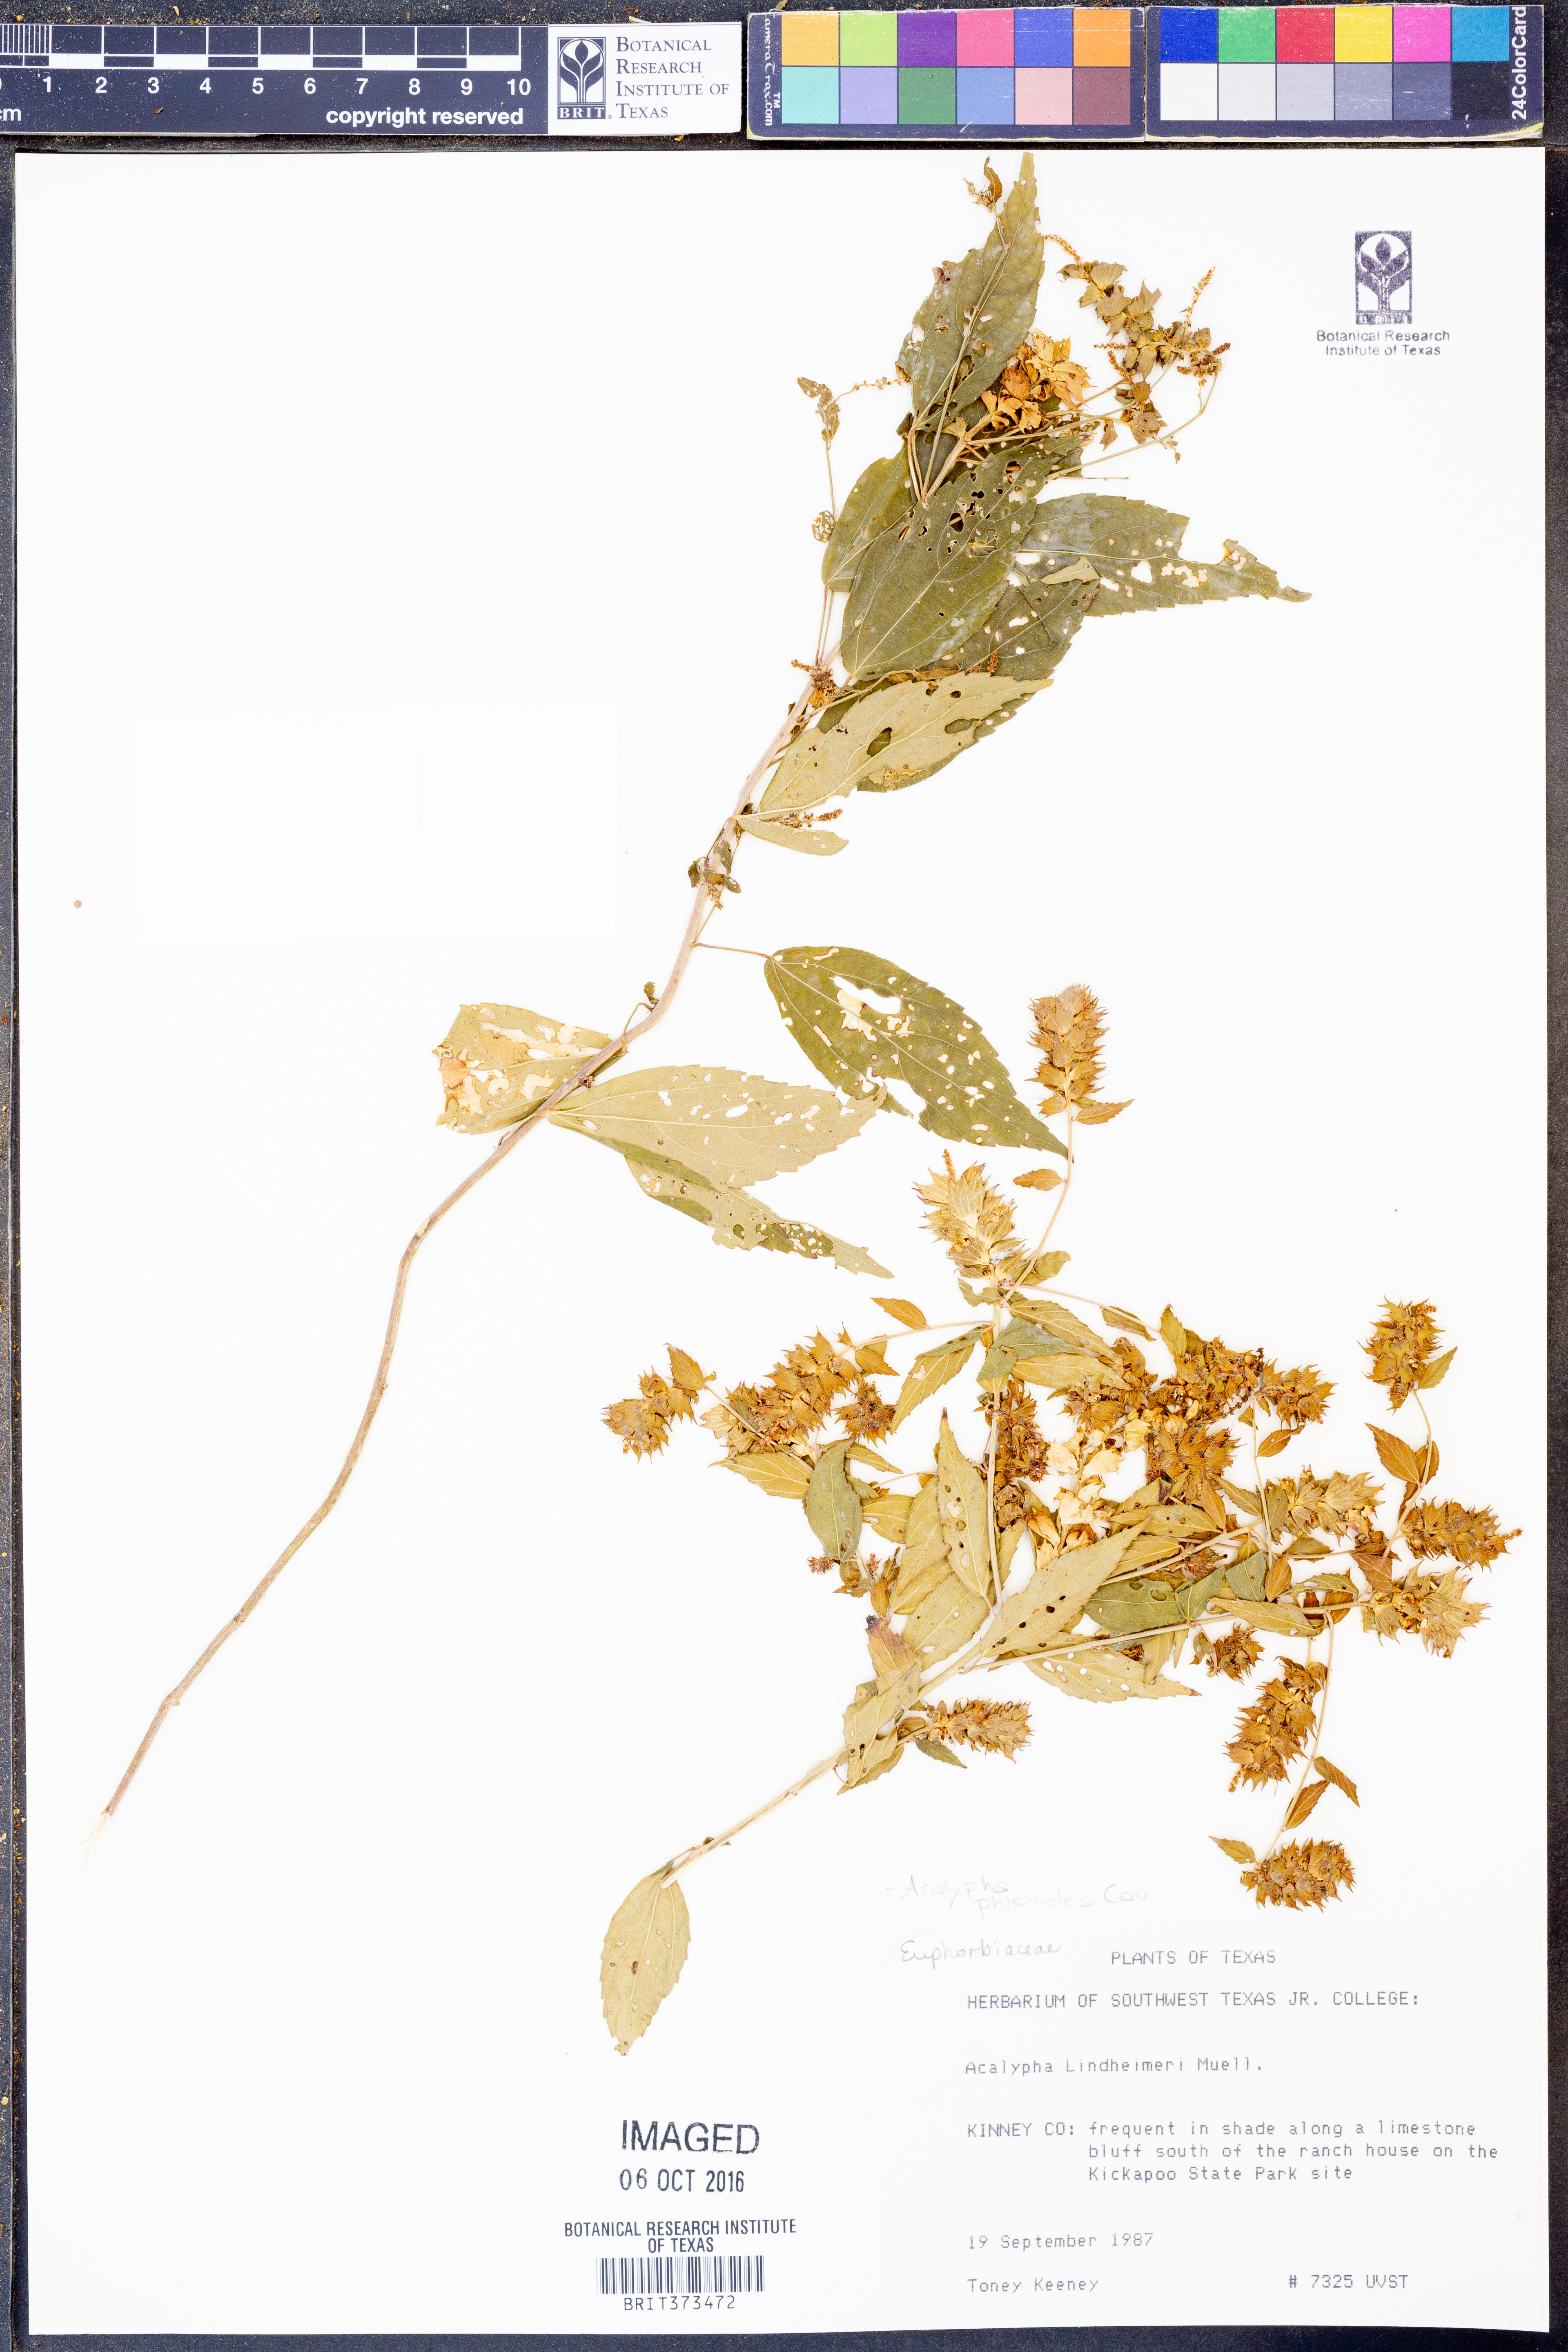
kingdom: Plantae
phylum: Tracheophyta
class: Magnoliopsida
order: Malpighiales
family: Euphorbiaceae
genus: Acalypha
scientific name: Acalypha phleoides
